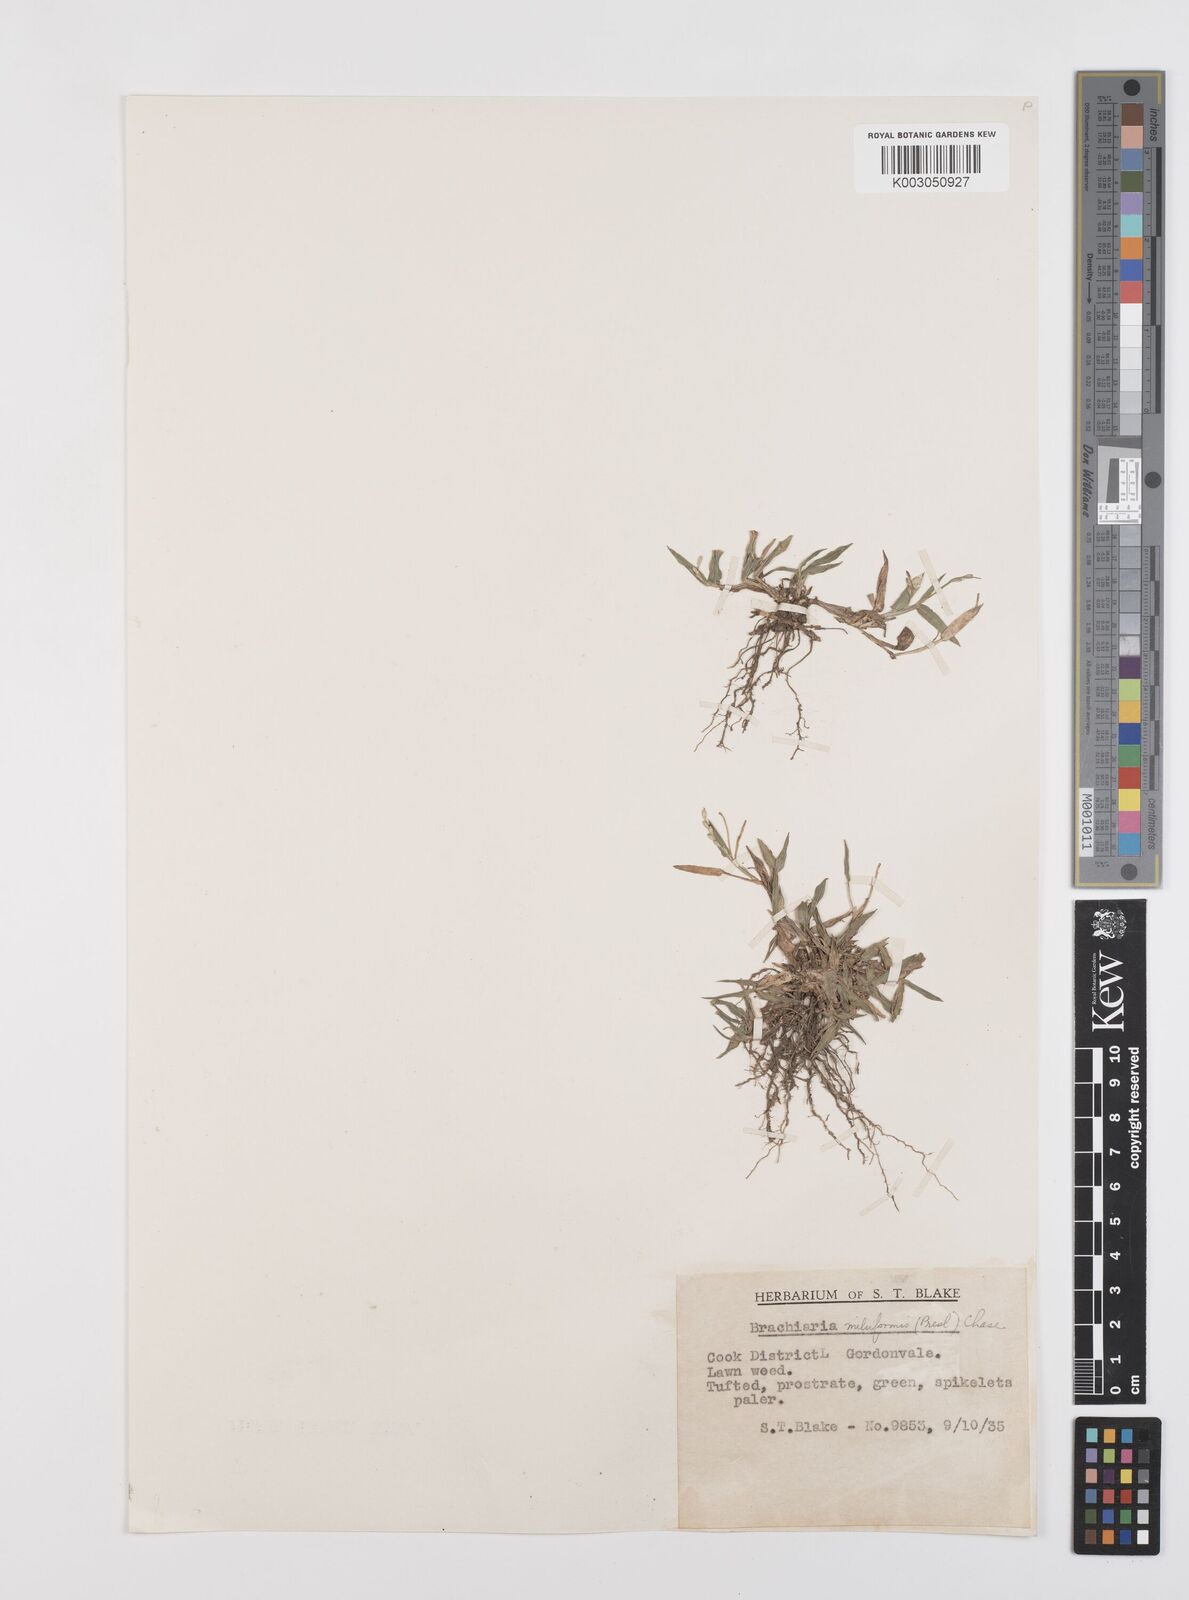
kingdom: Plantae
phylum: Tracheophyta
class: Liliopsida
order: Poales
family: Poaceae
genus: Urochloa
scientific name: Urochloa subquadripara
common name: Armgrass millet
